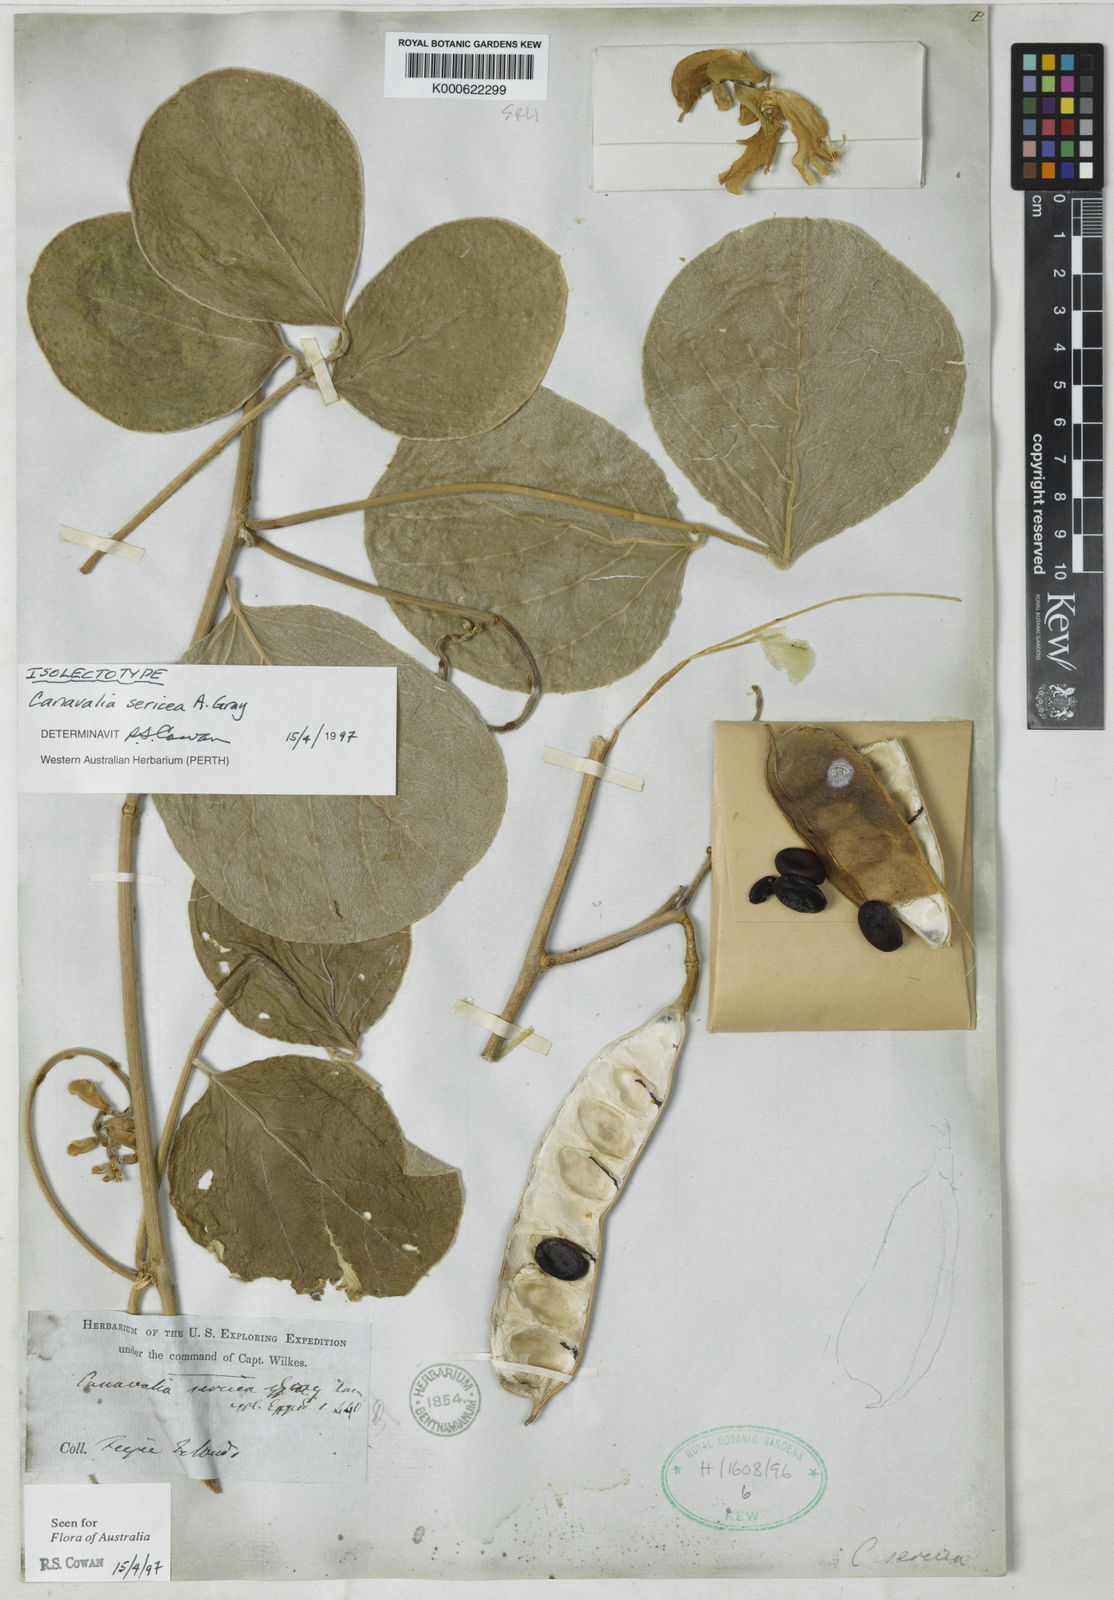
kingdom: Plantae
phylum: Tracheophyta
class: Magnoliopsida
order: Fabales
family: Fabaceae
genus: Canavalia
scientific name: Canavalia sericea
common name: Silky jackbean
